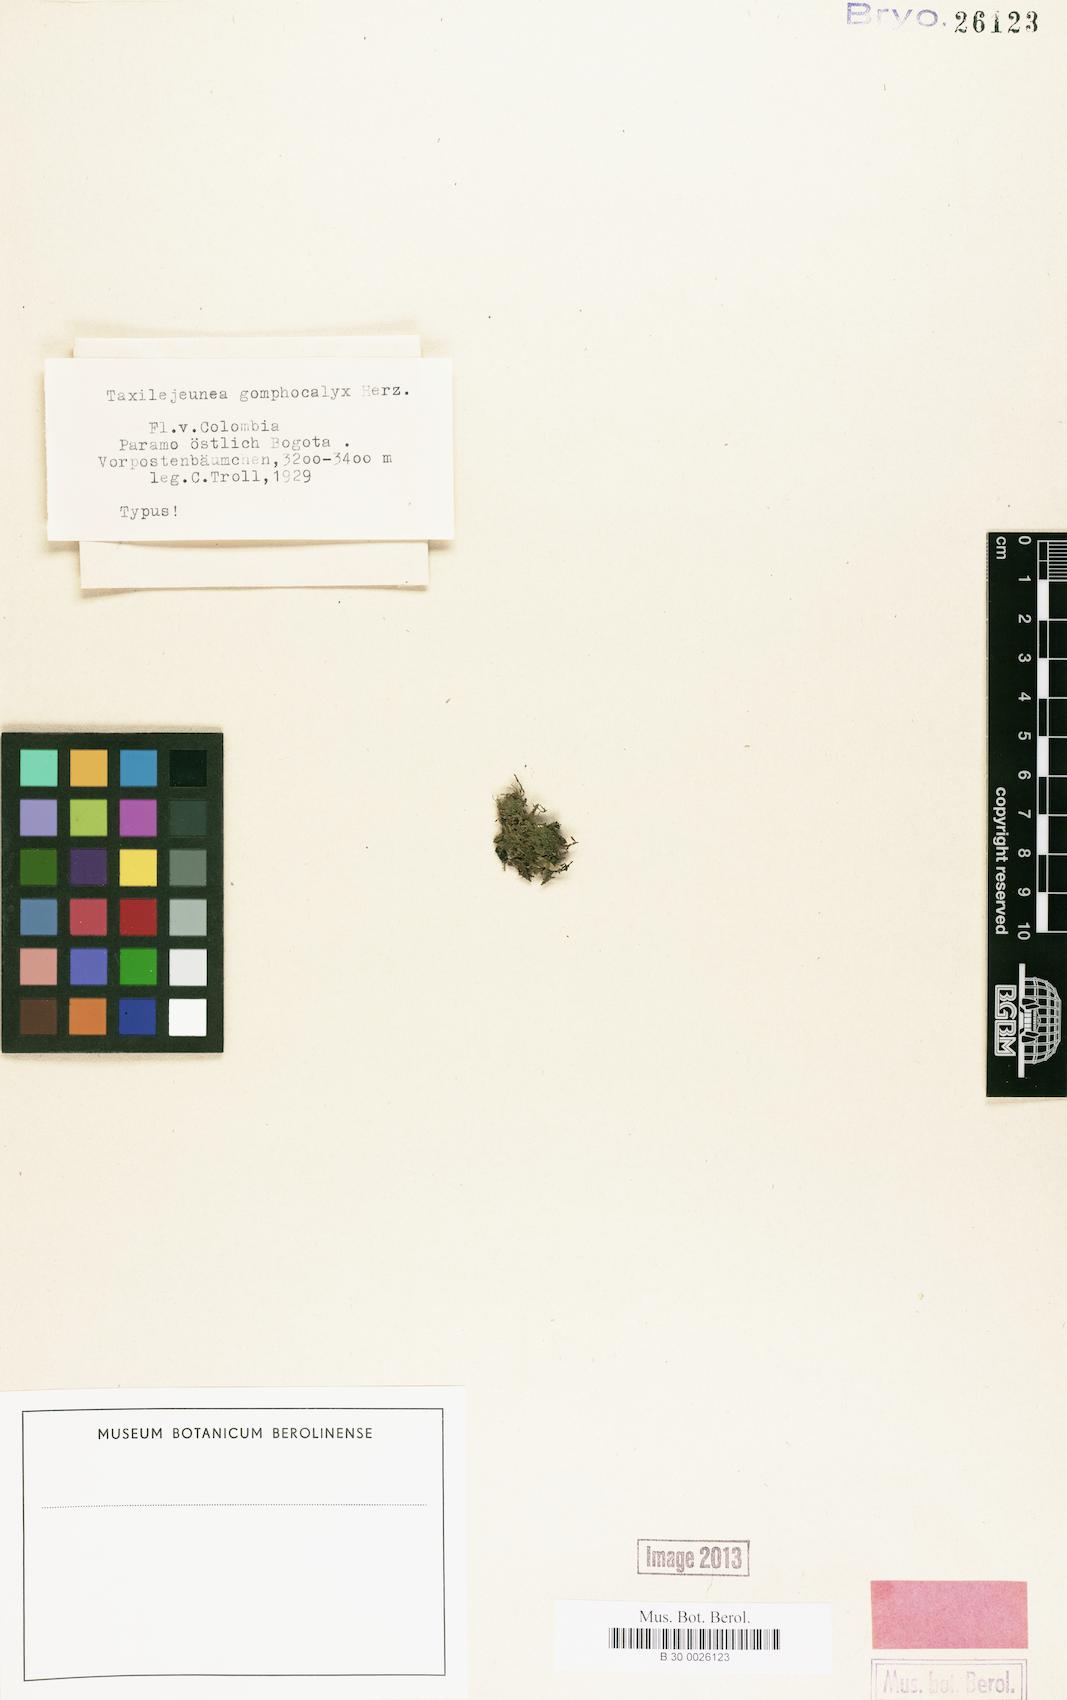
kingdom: Plantae
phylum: Marchantiophyta
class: Jungermanniopsida
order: Porellales
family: Lejeuneaceae
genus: Lejeunea
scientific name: Lejeunea capensis
